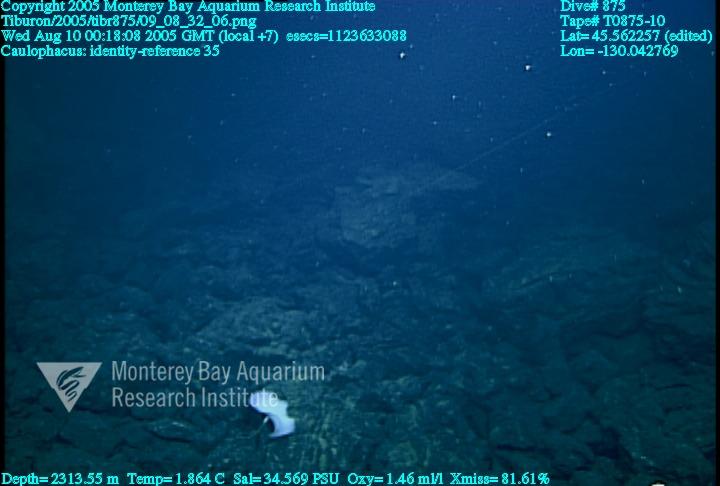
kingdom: Animalia
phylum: Porifera
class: Hexactinellida
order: Lyssacinosida
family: Rossellidae
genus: Caulophacus
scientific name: Caulophacus
